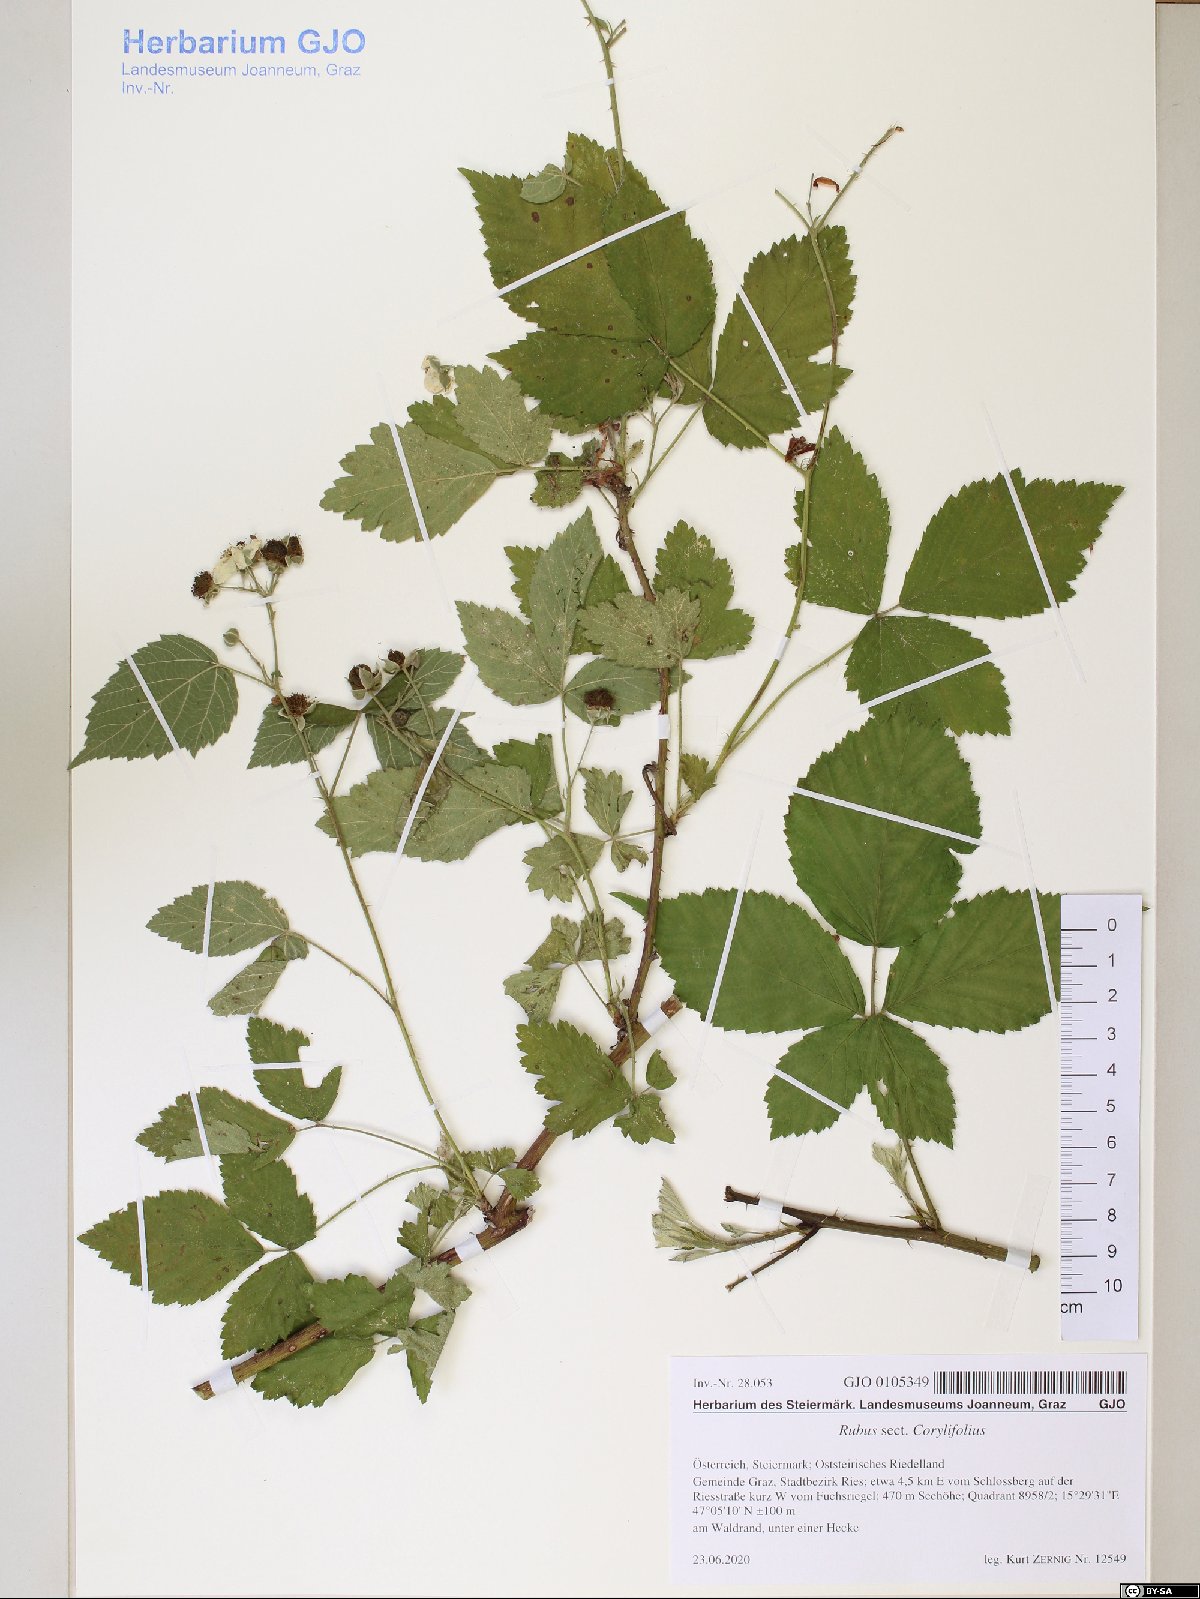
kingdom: Plantae
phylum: Tracheophyta
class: Magnoliopsida
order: Rosales
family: Rosaceae
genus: Rubus
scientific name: Rubus
